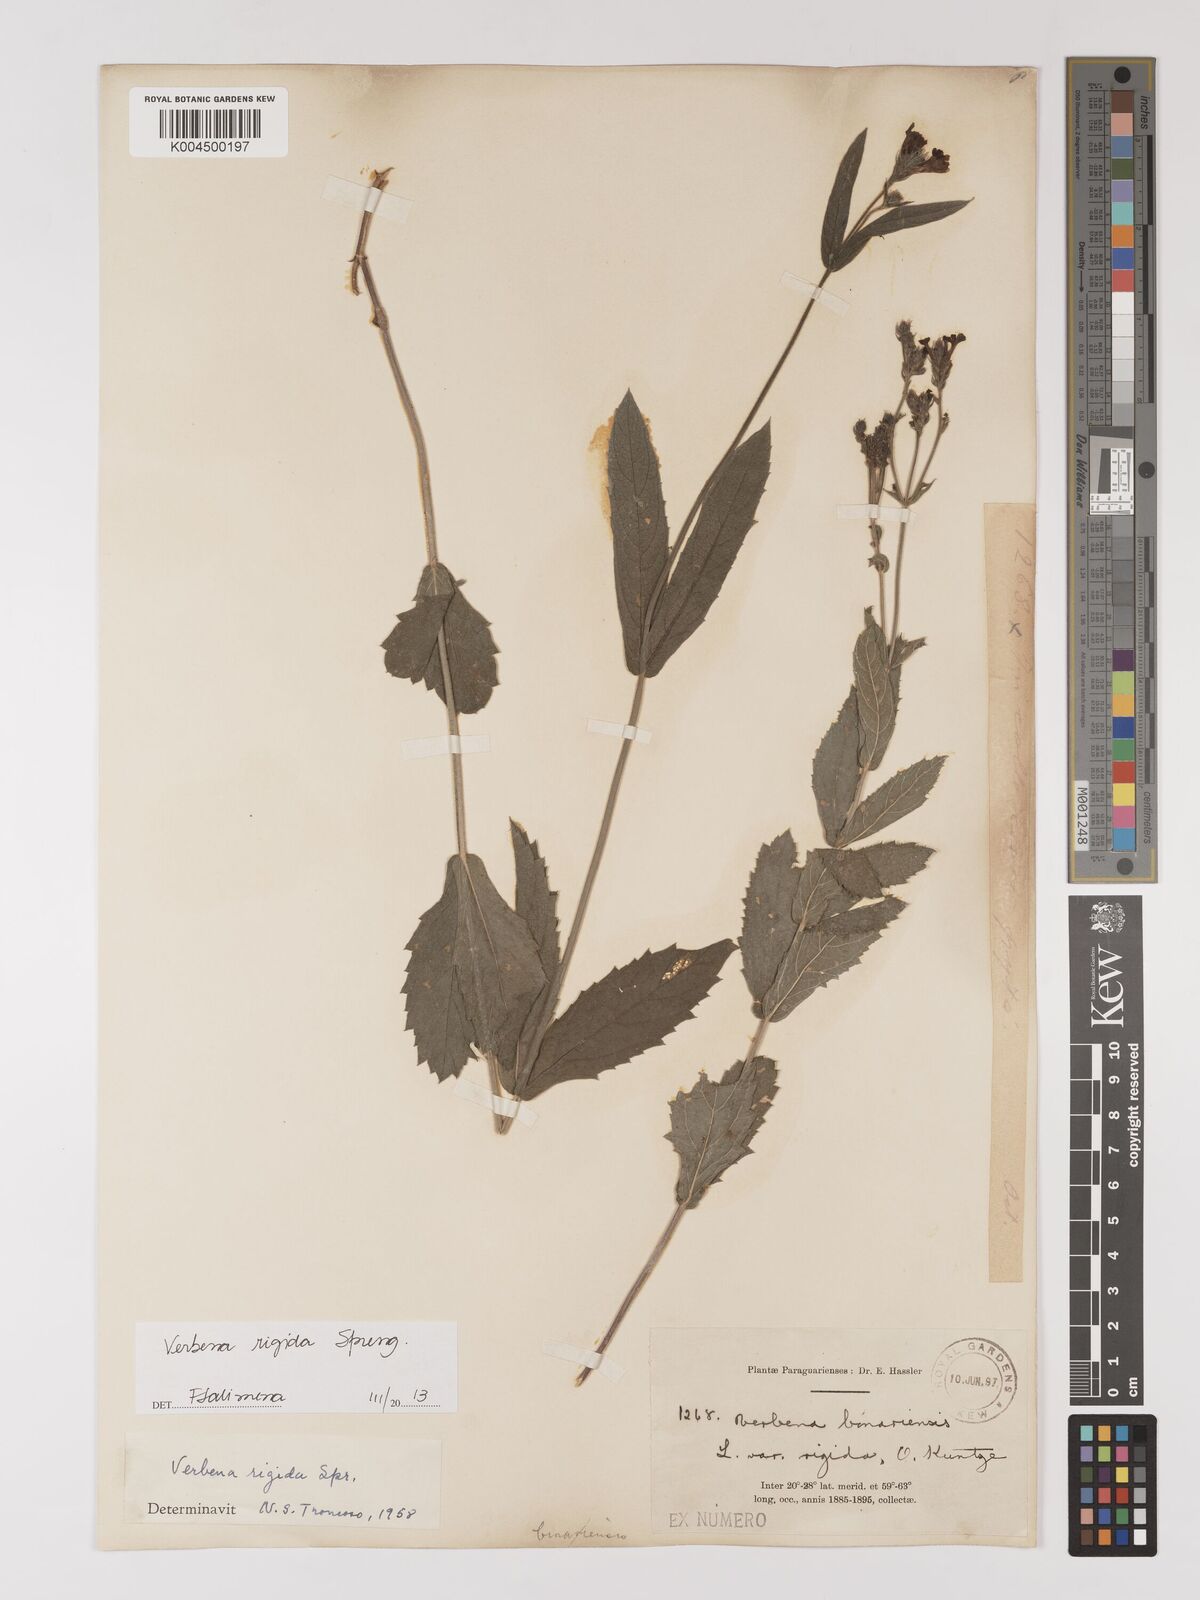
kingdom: Plantae
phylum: Tracheophyta
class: Magnoliopsida
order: Lamiales
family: Verbenaceae
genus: Verbena
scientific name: Verbena rigida
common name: Slender vervain
